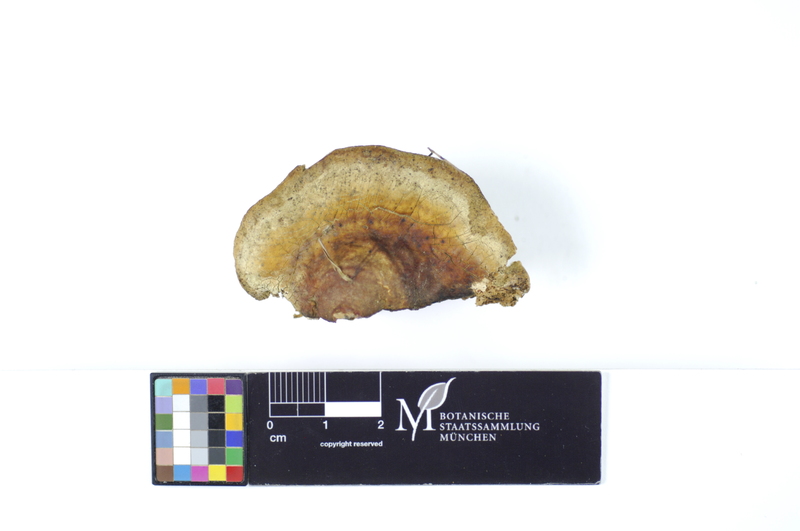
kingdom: Fungi
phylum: Basidiomycota
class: Agaricomycetes
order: Hymenochaetales
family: Rickenellaceae
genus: Peniophorella
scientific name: Peniophorella praetermissa
